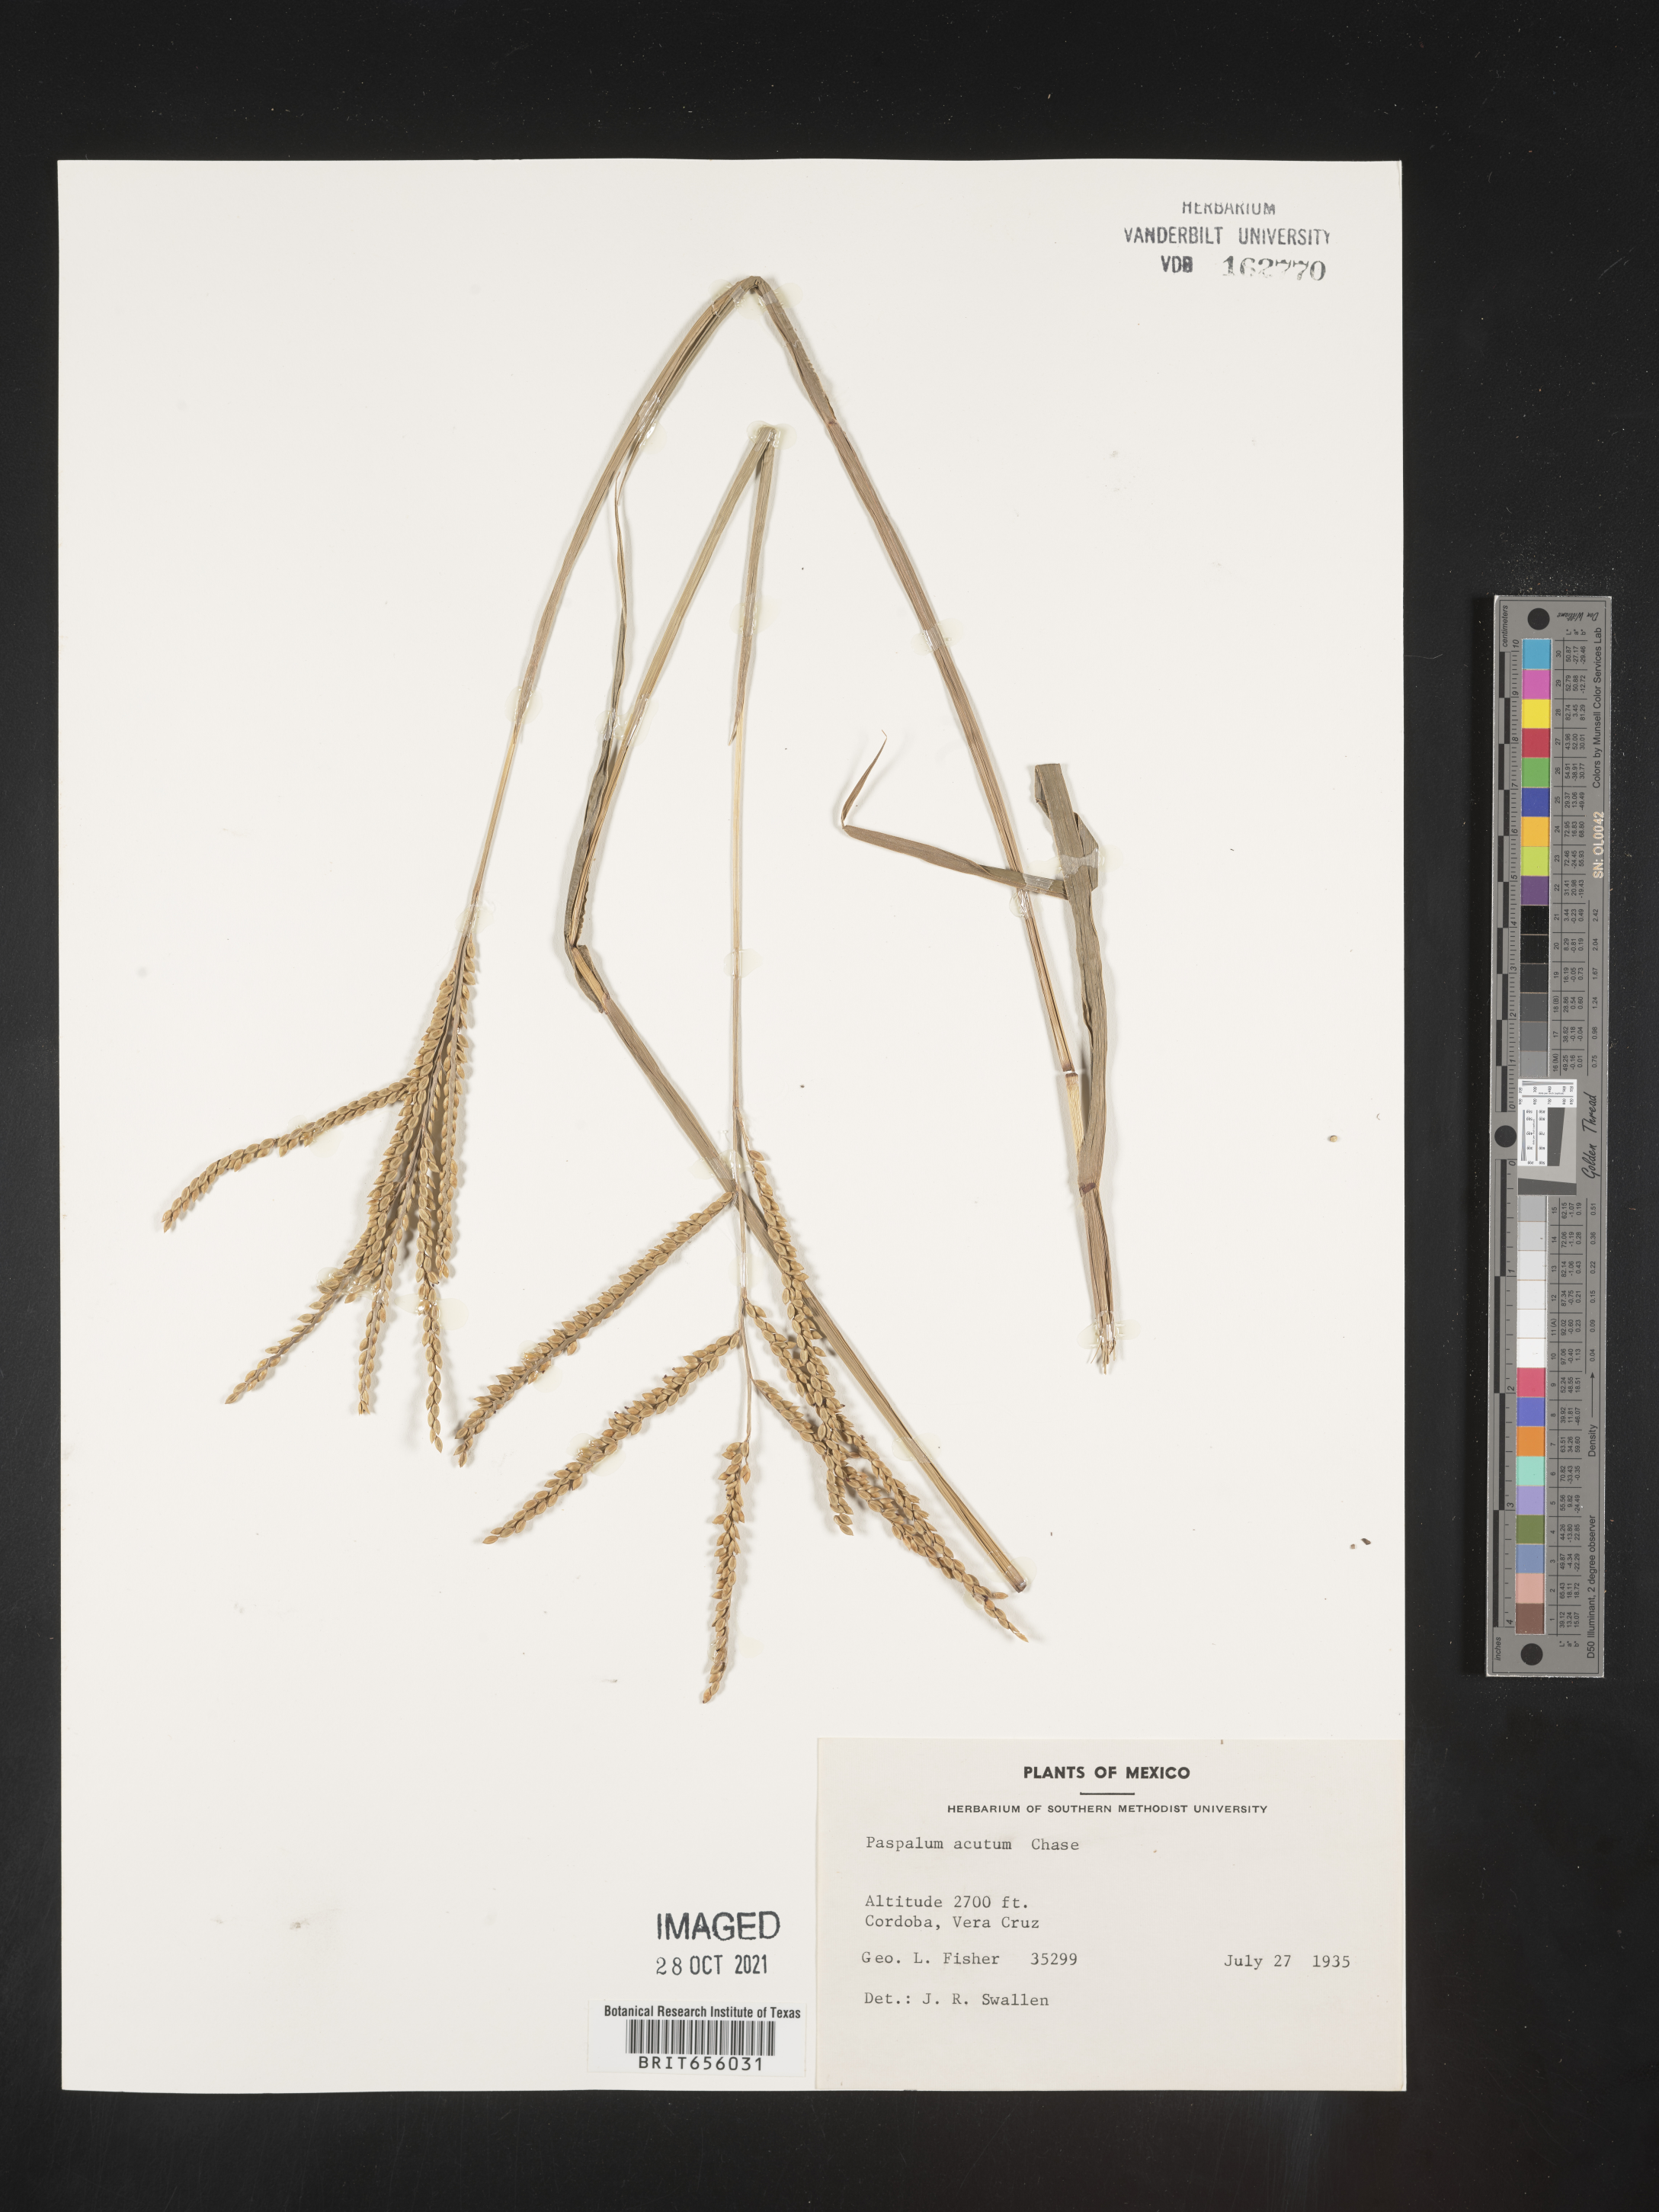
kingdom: Plantae
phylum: Tracheophyta
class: Liliopsida
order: Poales
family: Poaceae
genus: Paspalum
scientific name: Paspalum
